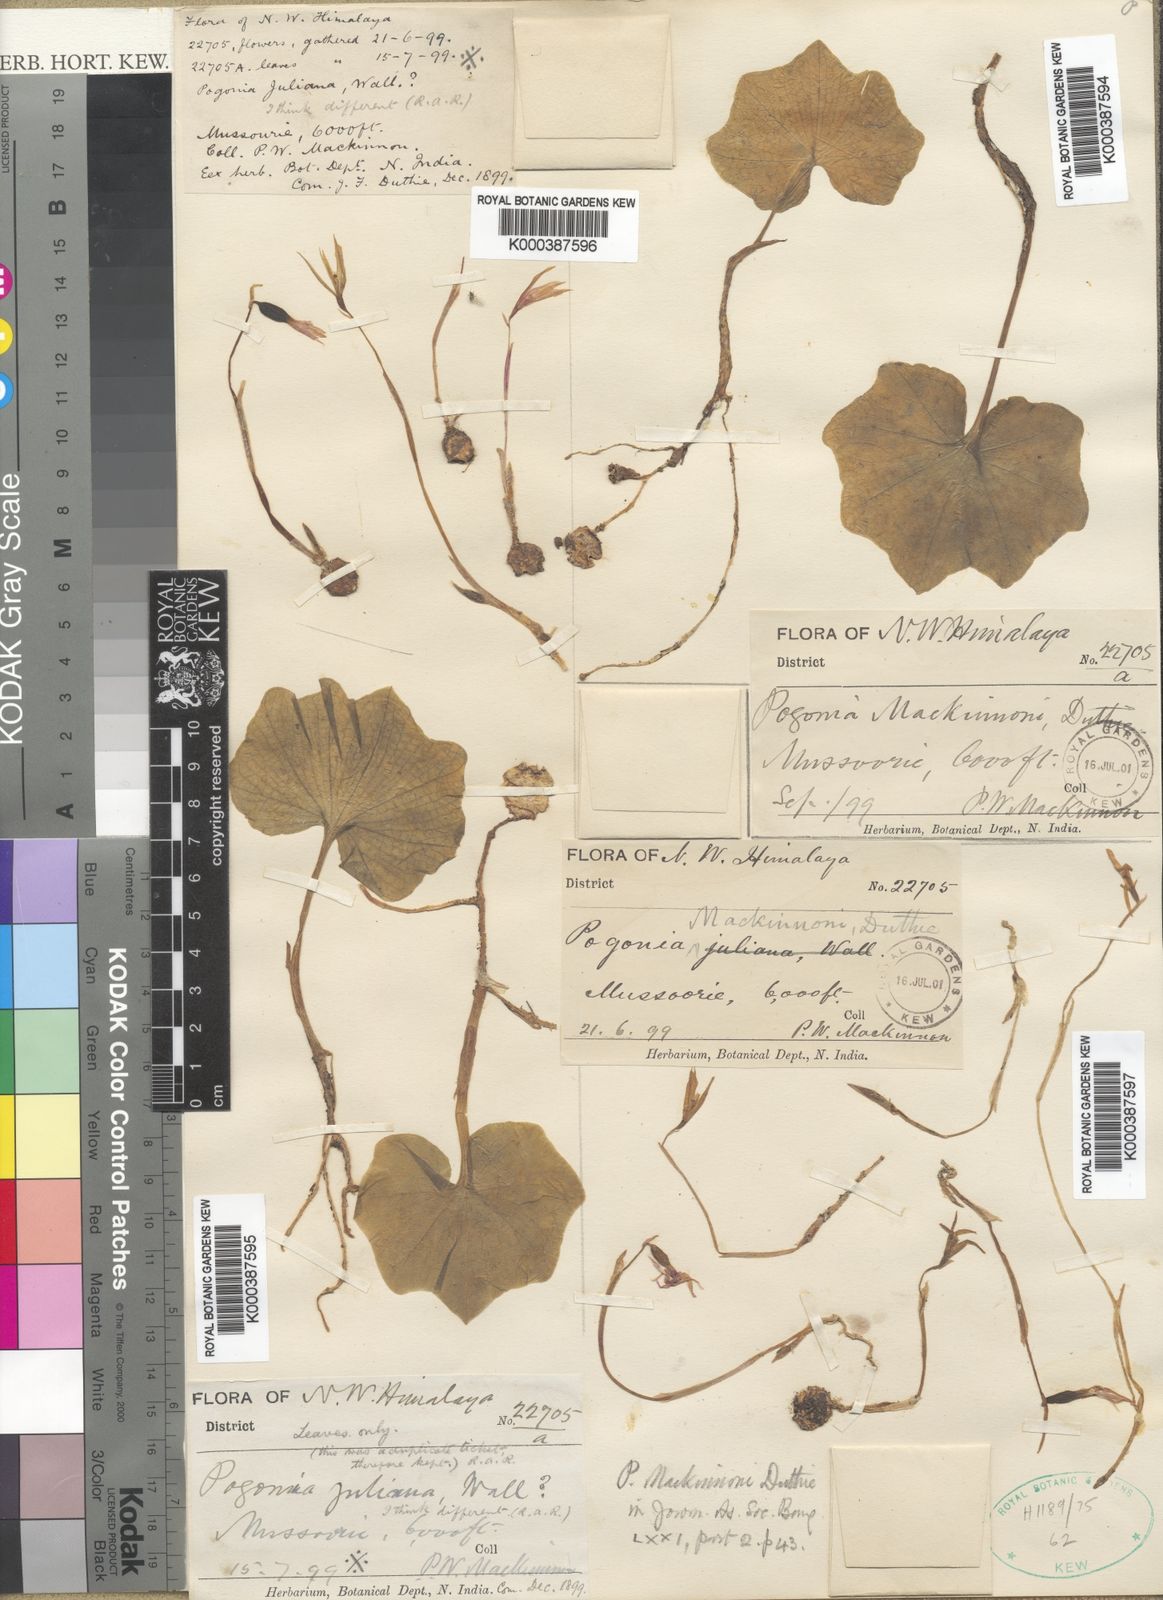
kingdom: Plantae
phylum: Tracheophyta
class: Liliopsida
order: Asparagales
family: Orchidaceae
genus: Nervilia
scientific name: Nervilia mackinnonii
